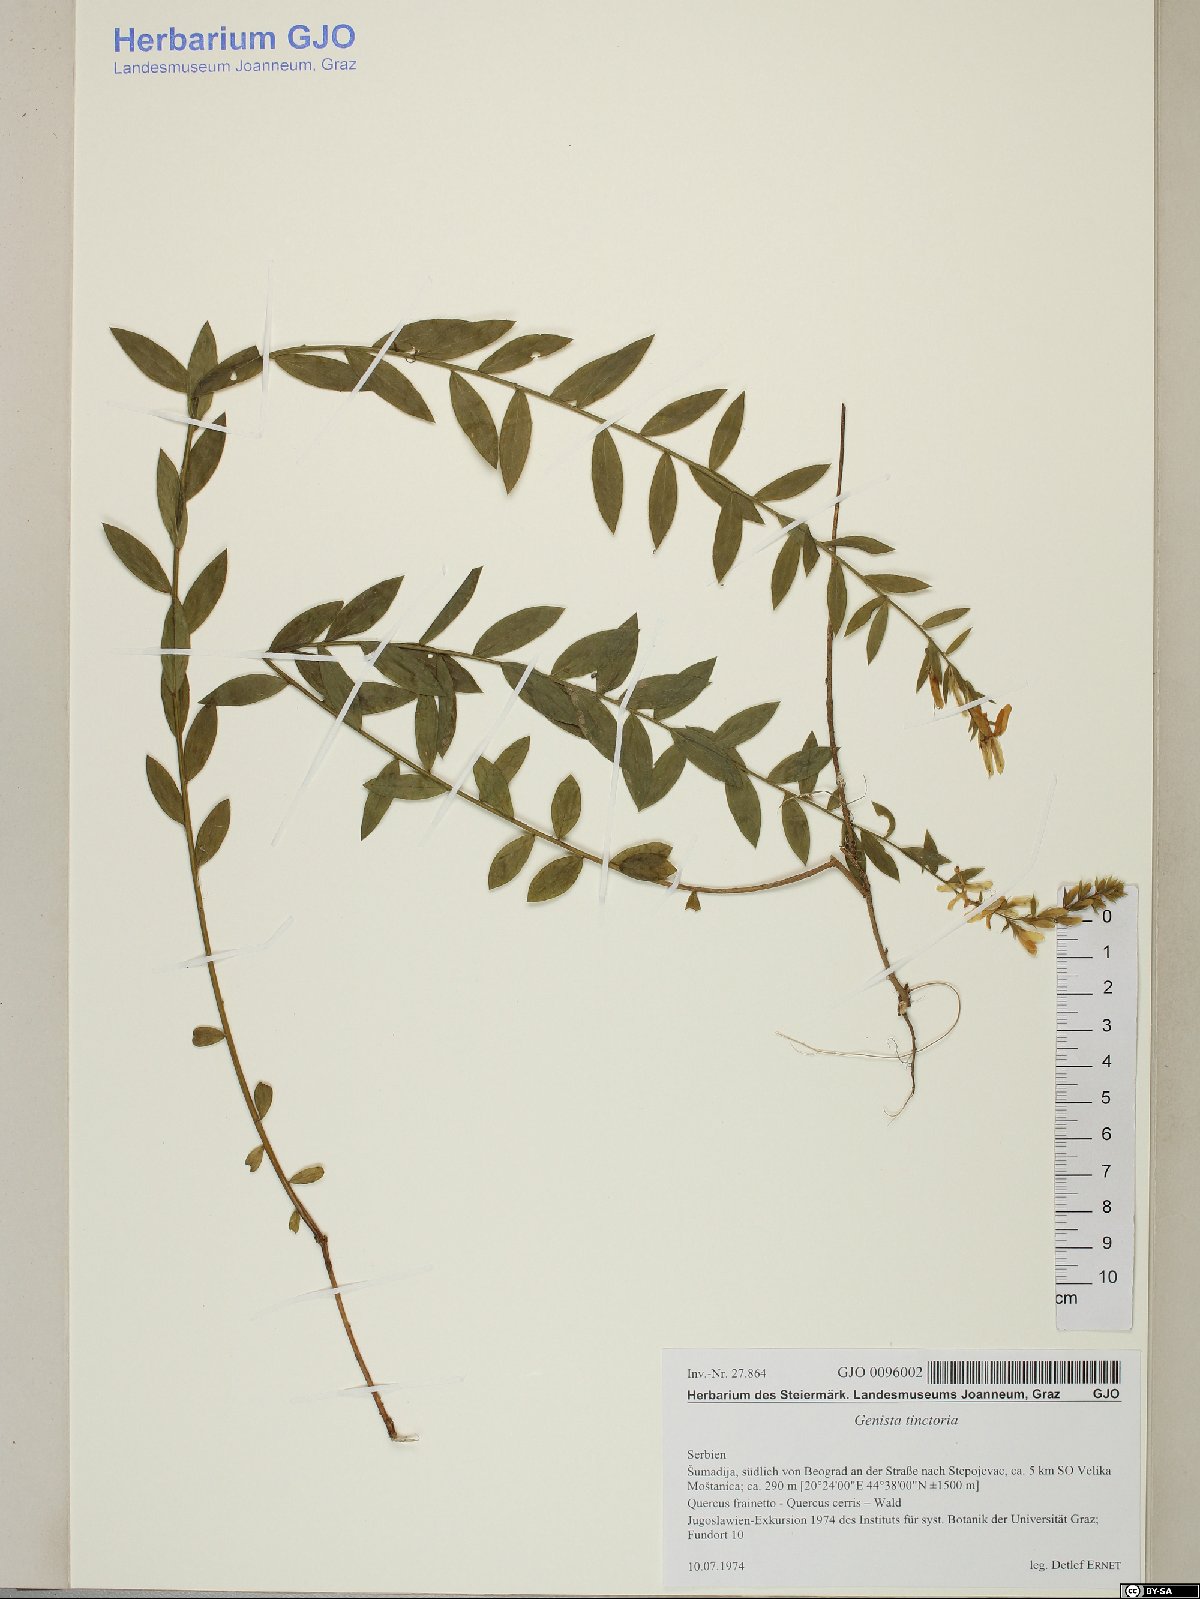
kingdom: Plantae
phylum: Tracheophyta
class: Magnoliopsida
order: Fabales
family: Fabaceae
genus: Genista
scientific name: Genista tinctoria
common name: Dyer's greenweed
